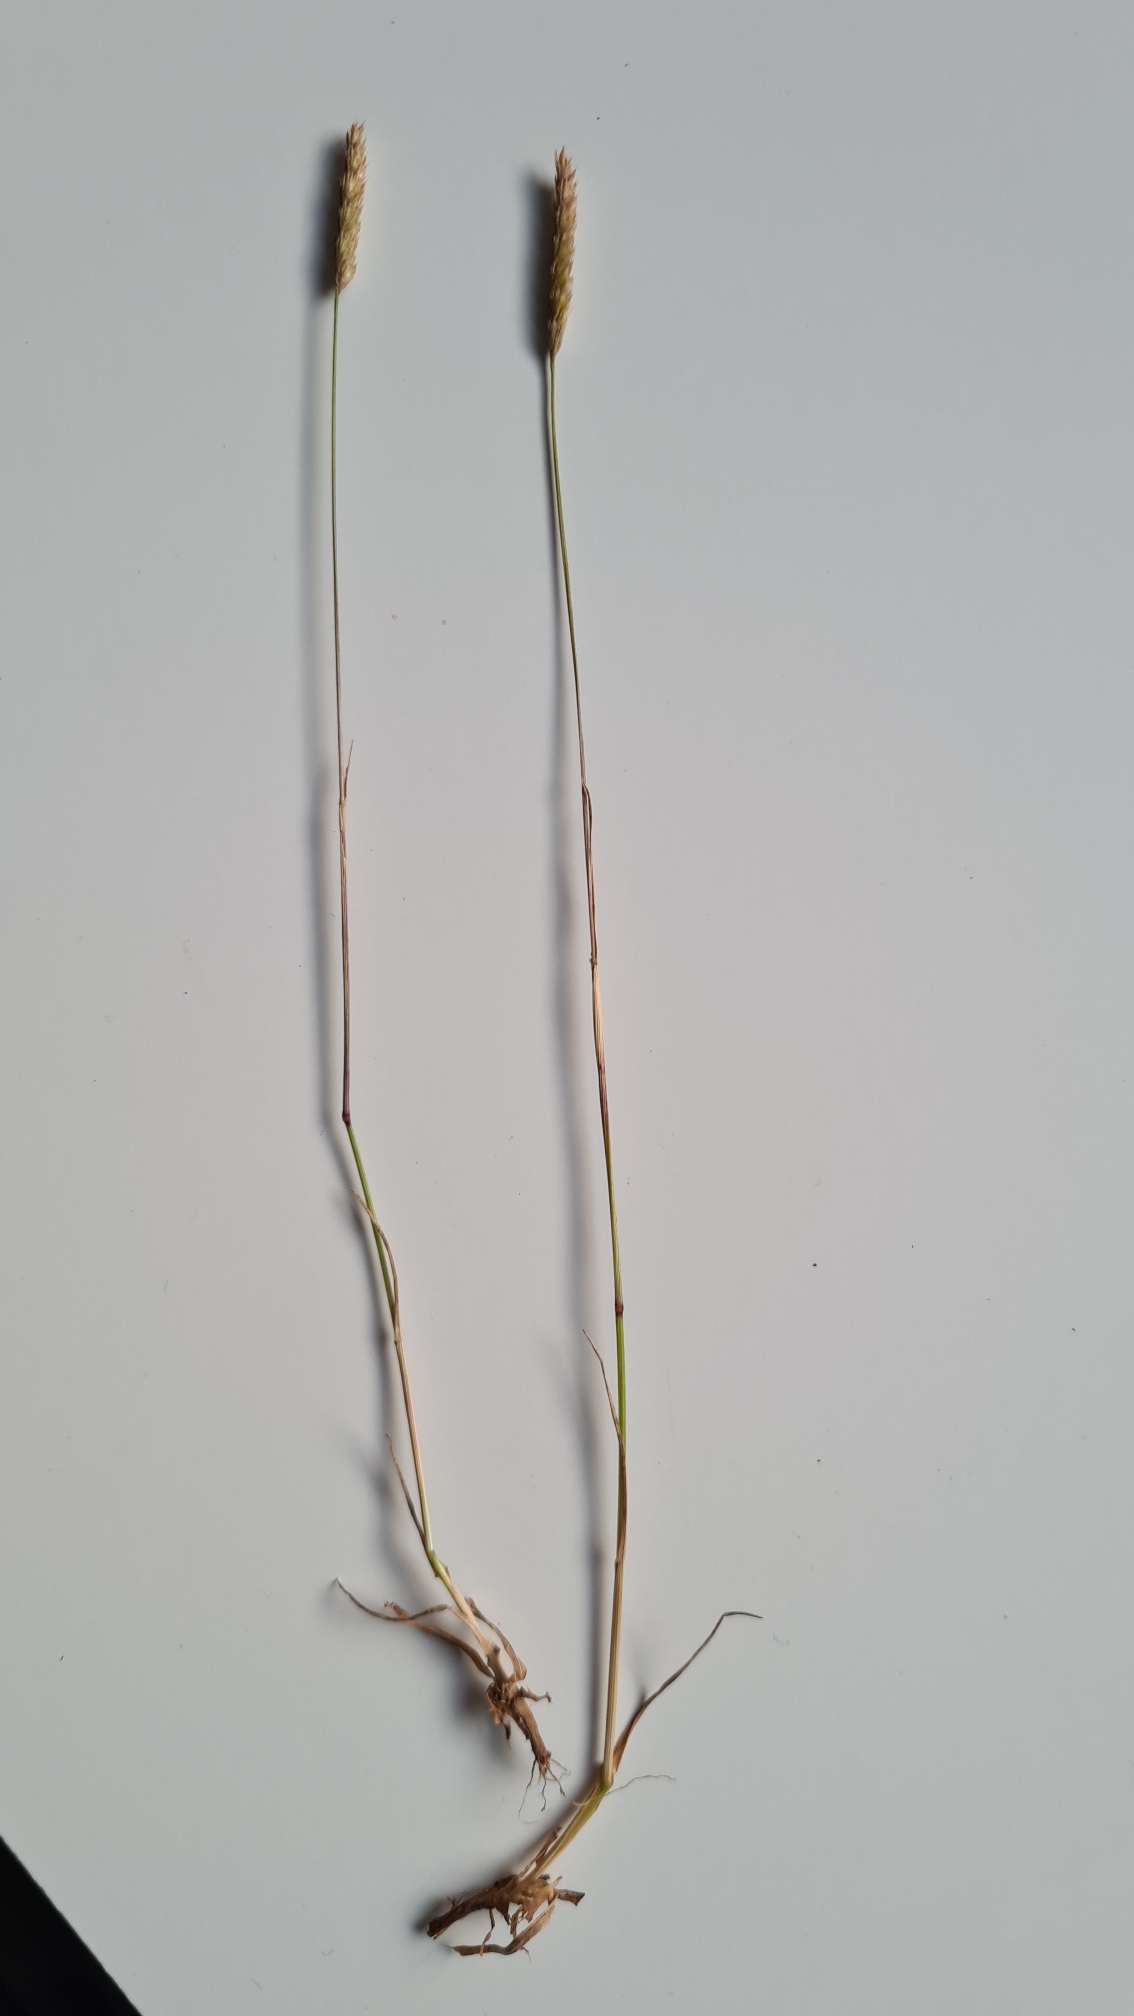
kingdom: Plantae
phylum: Tracheophyta
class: Liliopsida
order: Poales
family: Poaceae
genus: Cynosurus
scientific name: Cynosurus cristatus
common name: Kamgræs
